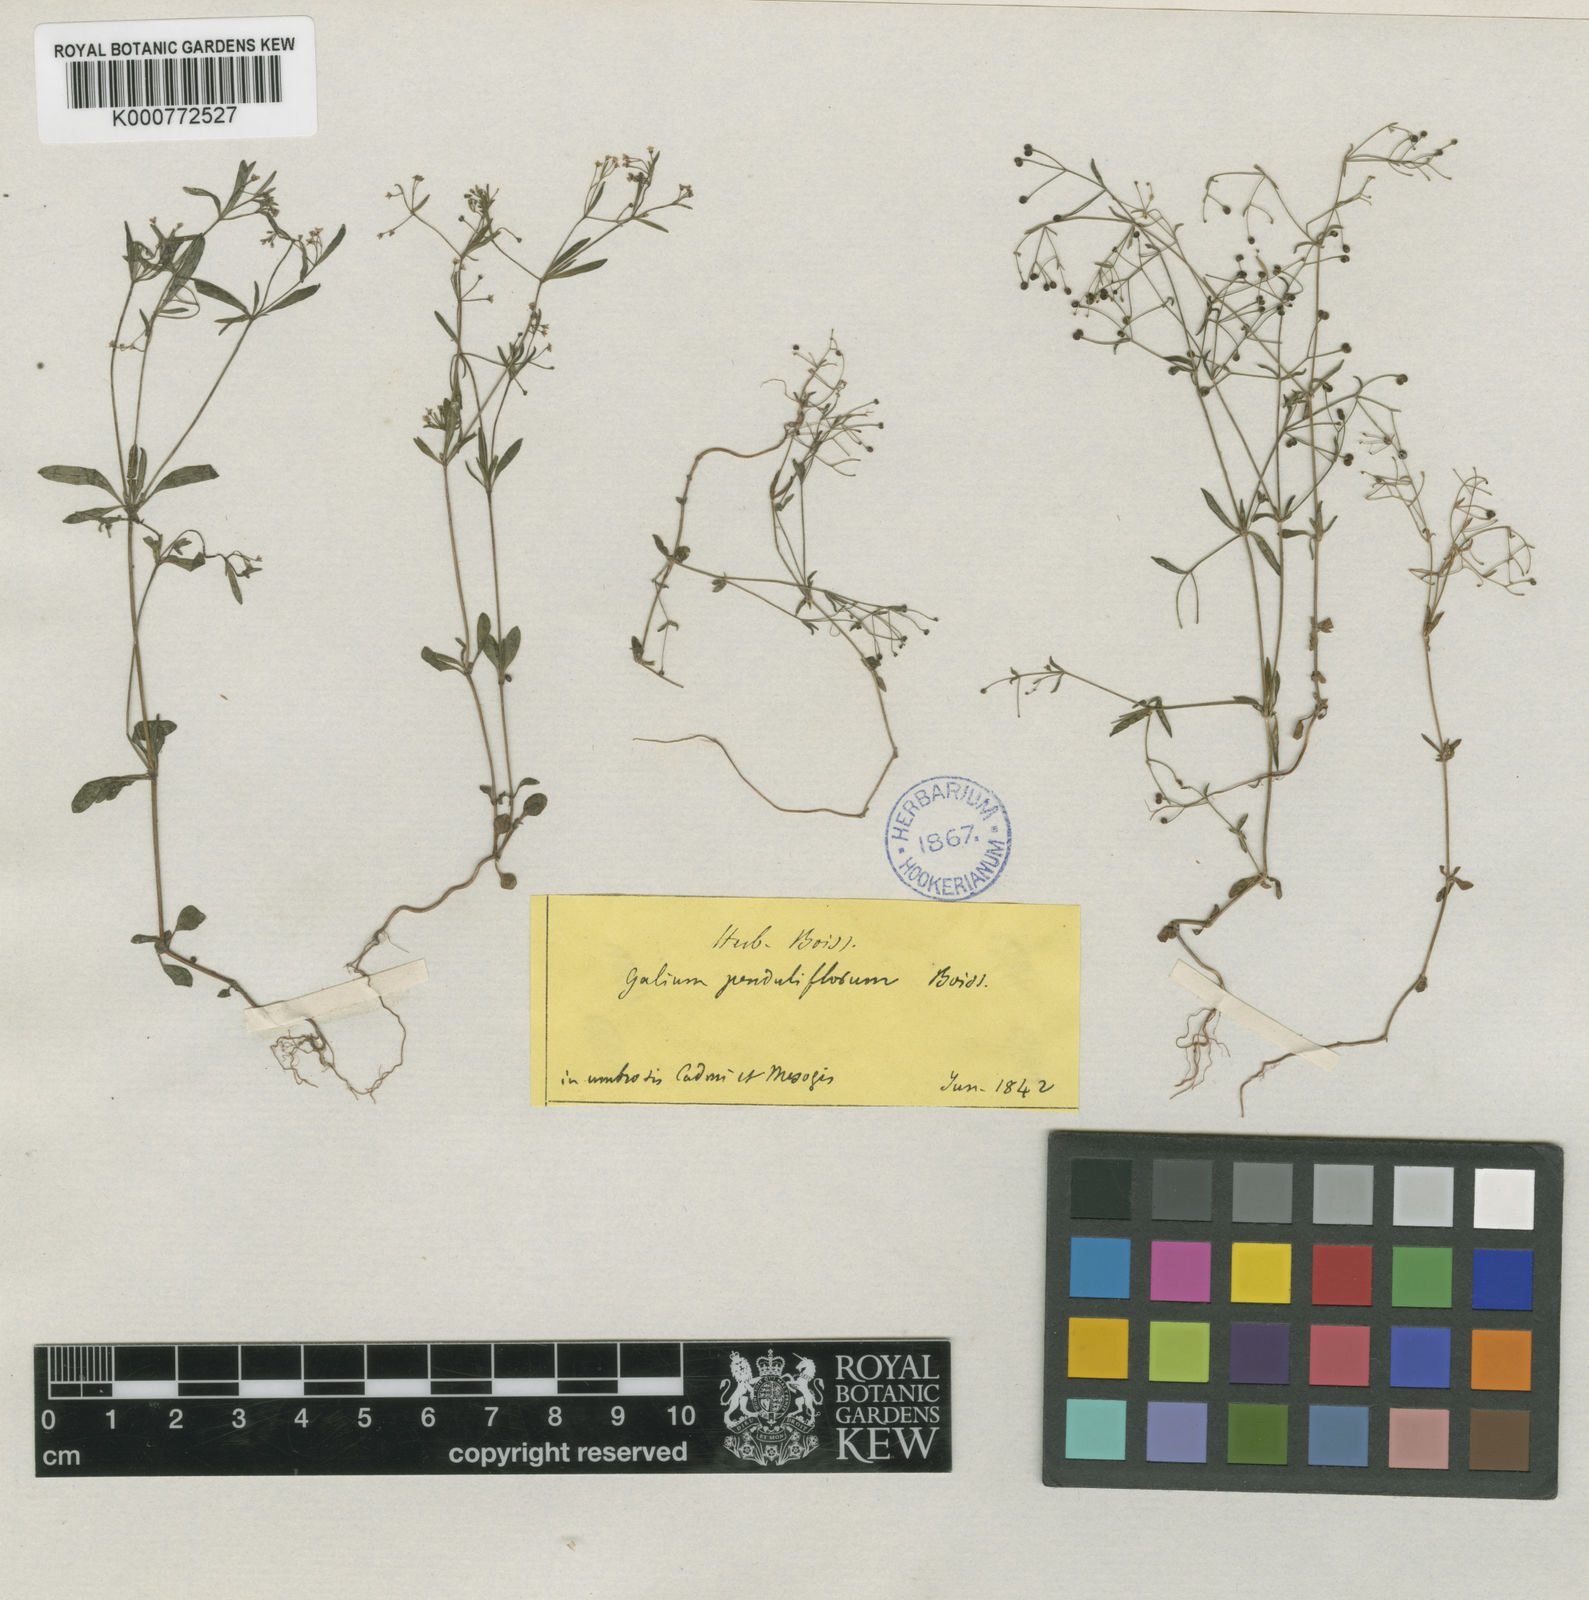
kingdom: Plantae
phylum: Tracheophyta
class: Magnoliopsida
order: Gentianales
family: Rubiaceae
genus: Galium
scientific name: Galium penduliflorum
